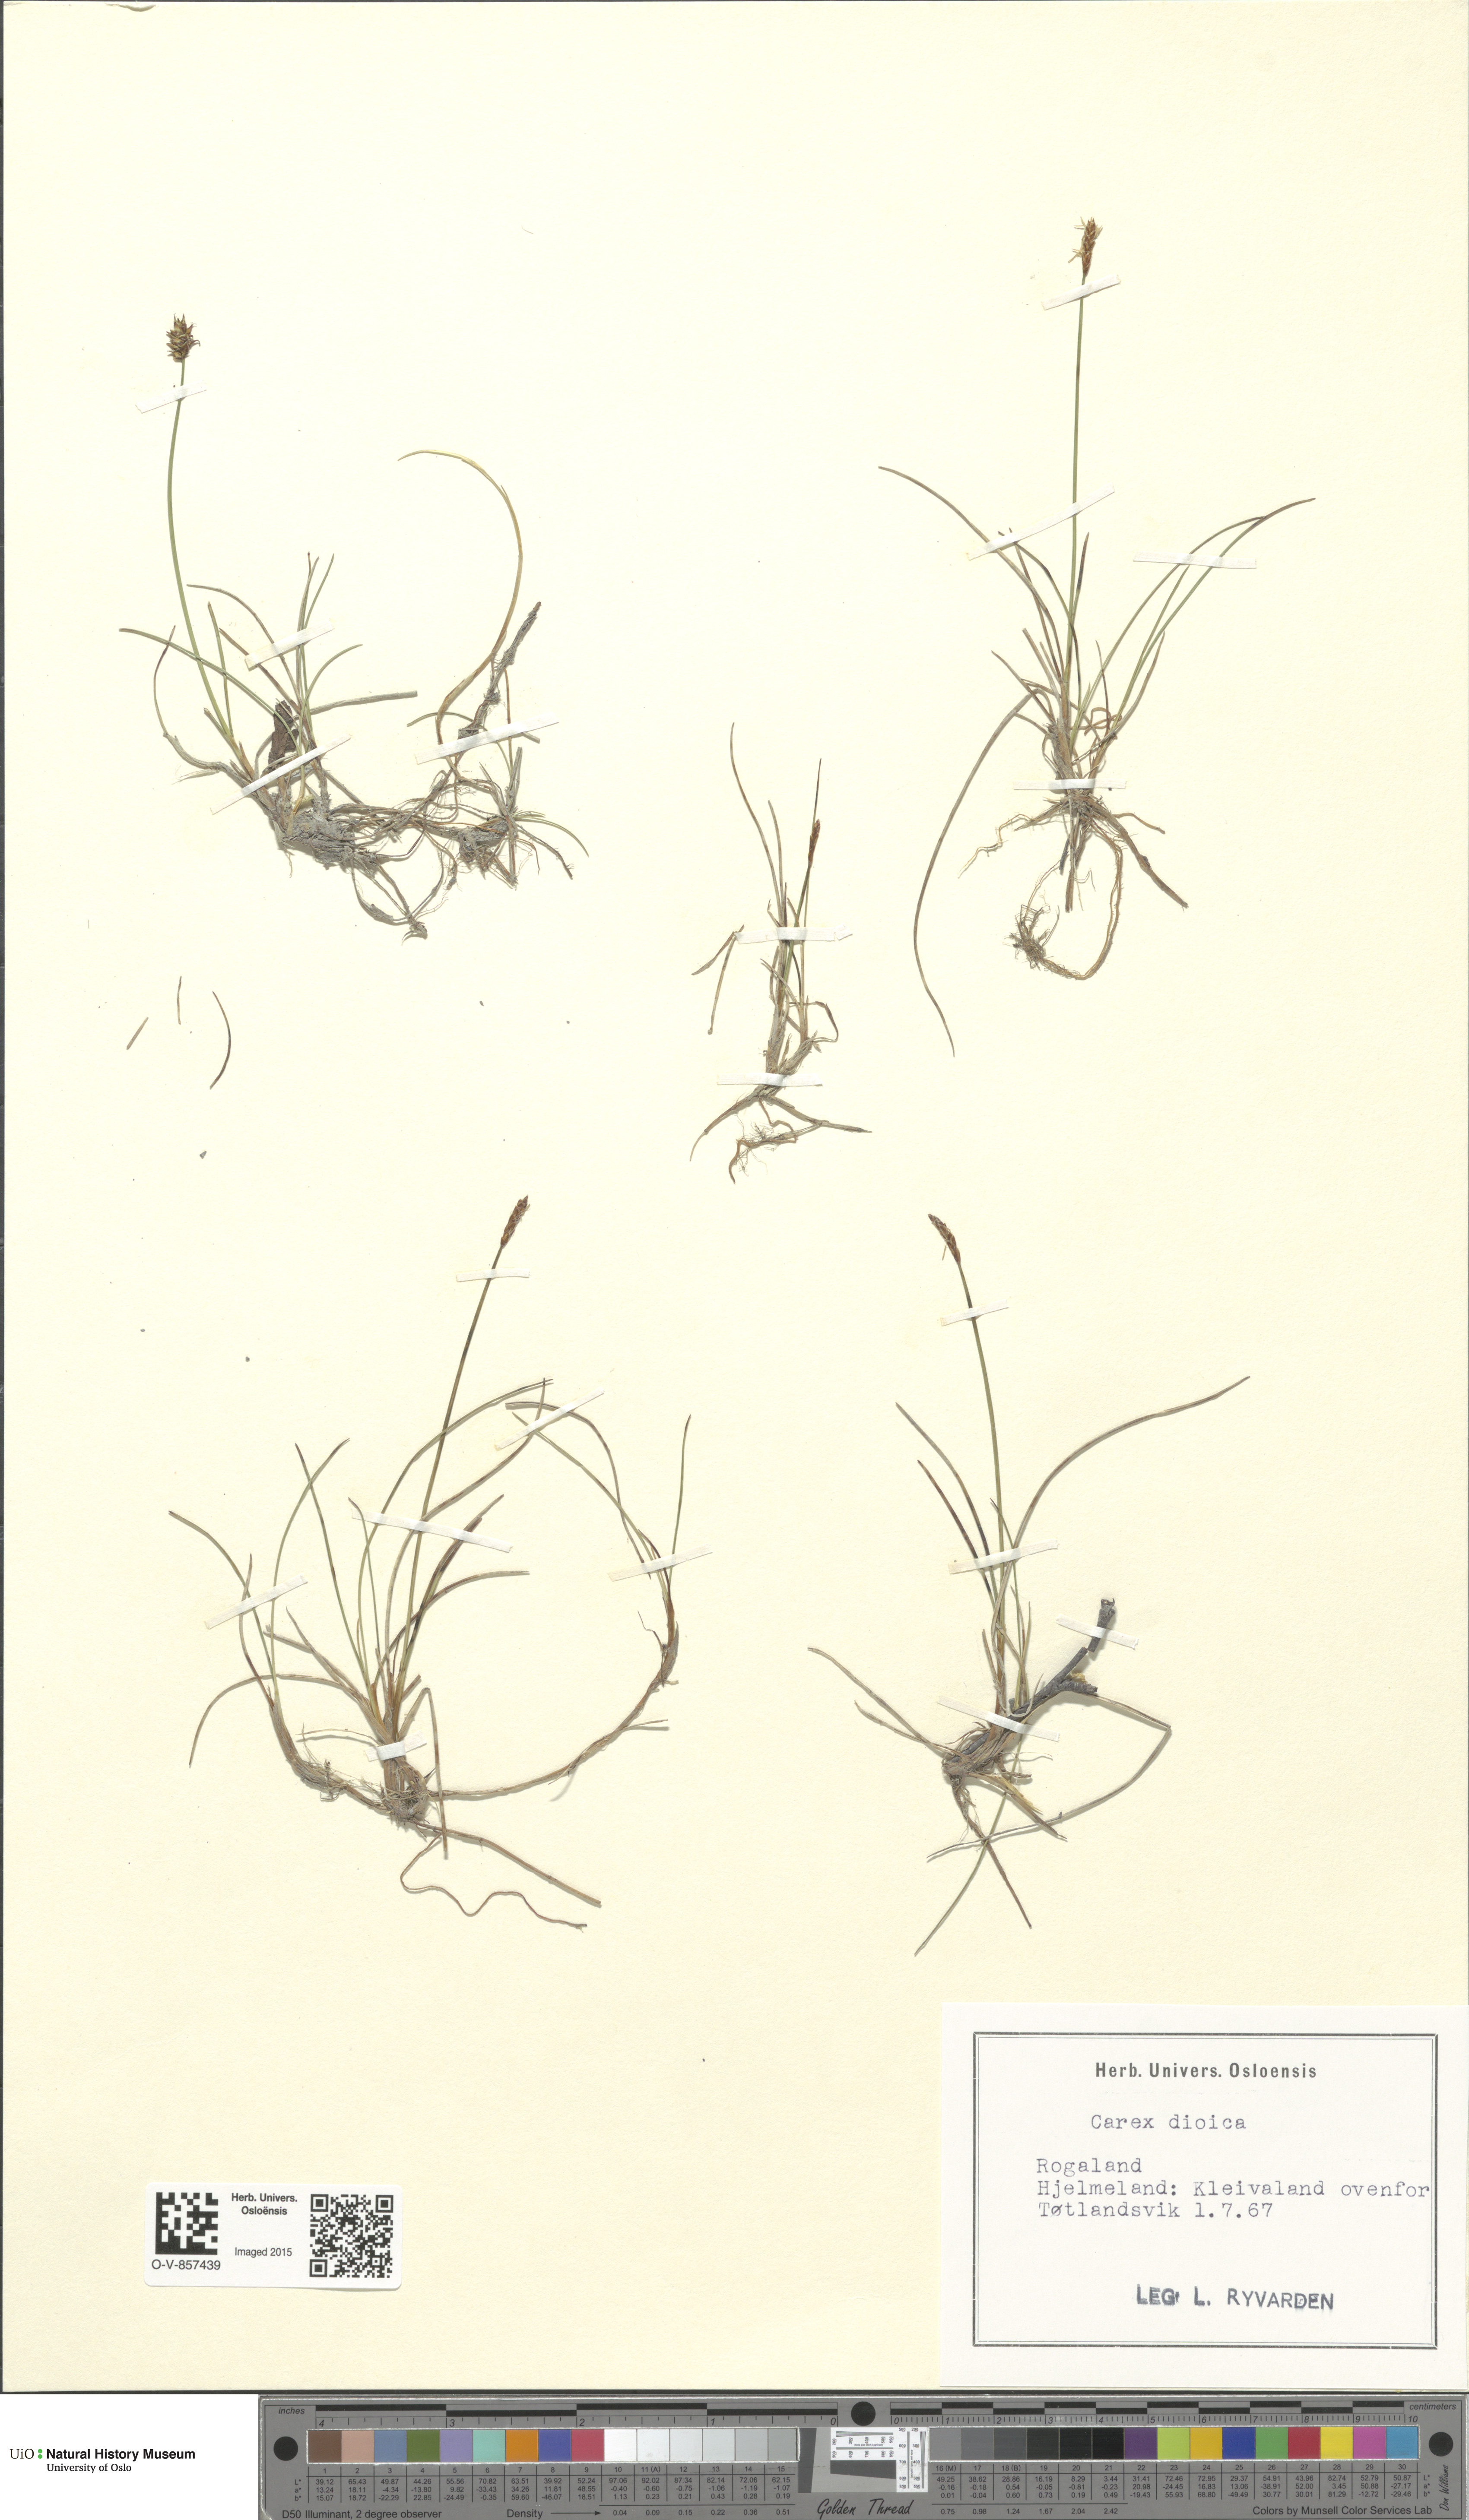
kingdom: Plantae
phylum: Tracheophyta
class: Liliopsida
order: Poales
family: Cyperaceae
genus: Carex
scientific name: Carex dioica
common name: Dioecious sedge
